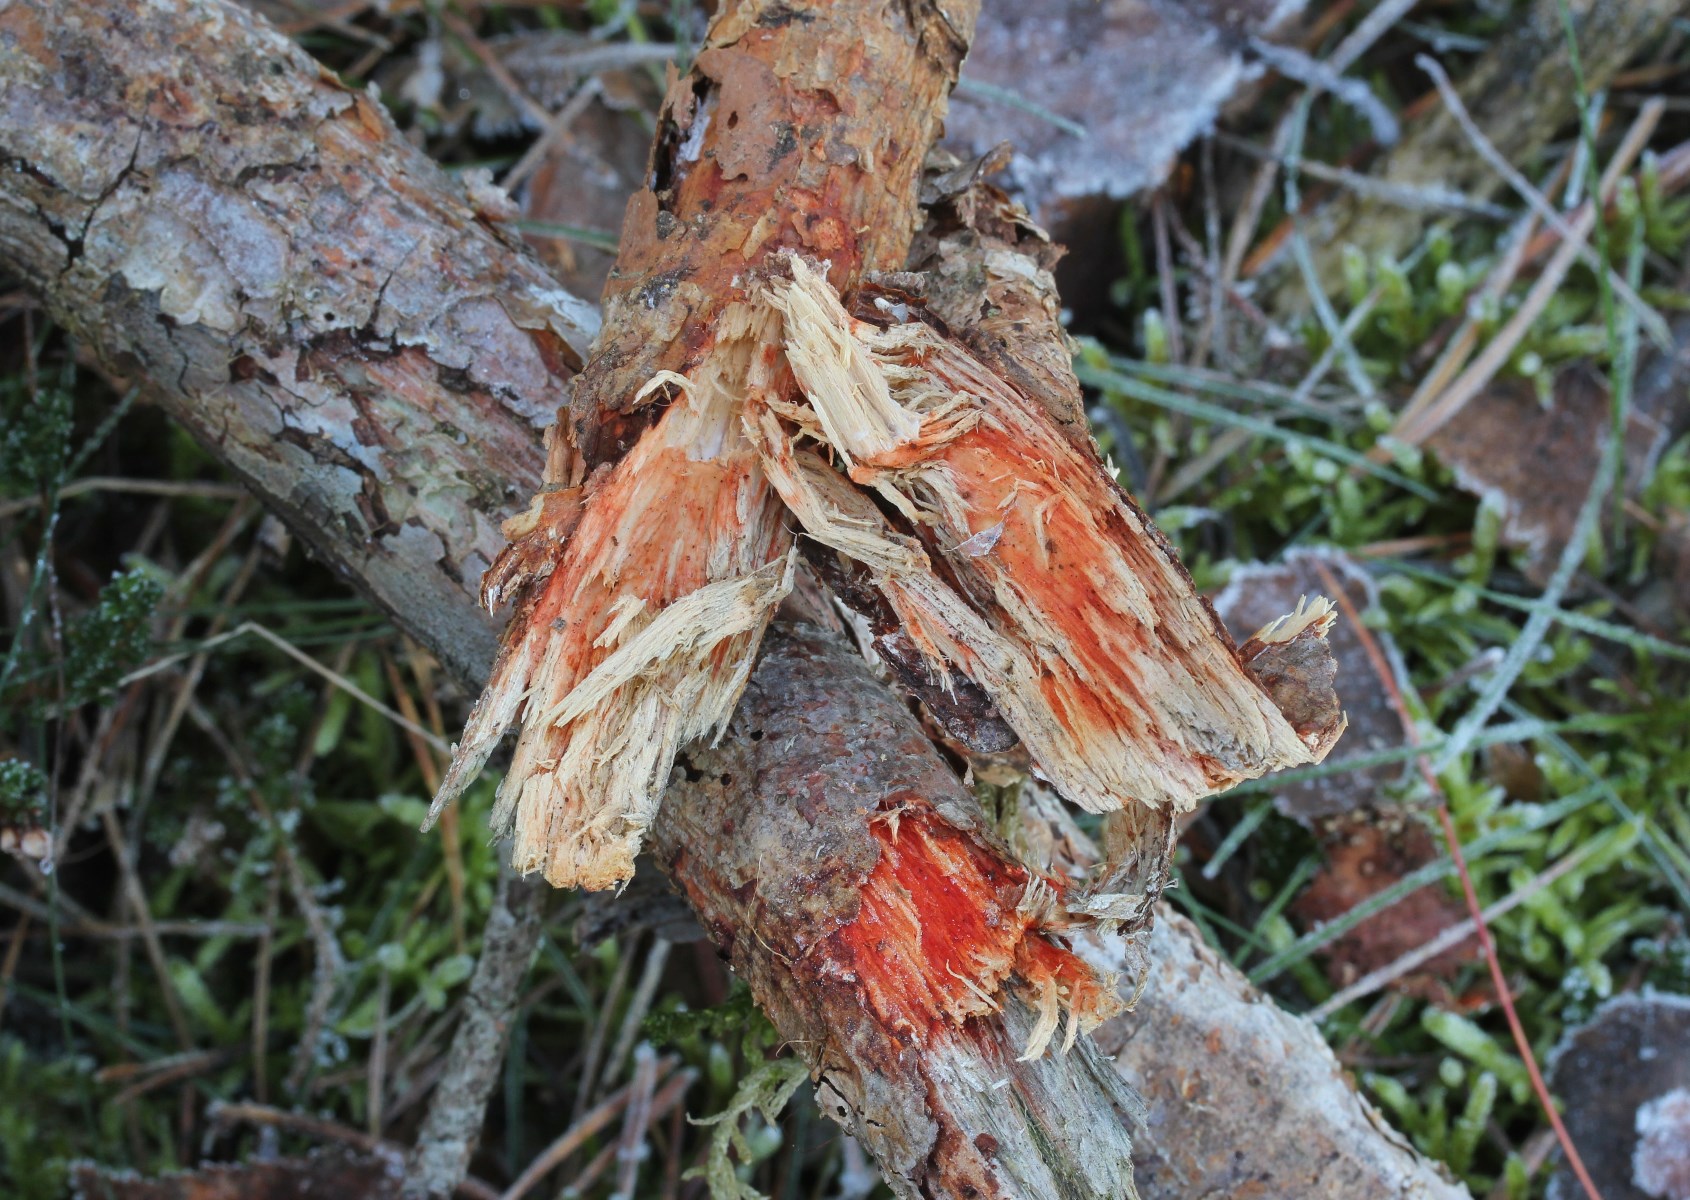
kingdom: Fungi
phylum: Basidiomycota
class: Agaricomycetes
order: Polyporales
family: Phanerochaetaceae
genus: Atheliachaete
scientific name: Atheliachaete sanguinea
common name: rødmende randtråd
